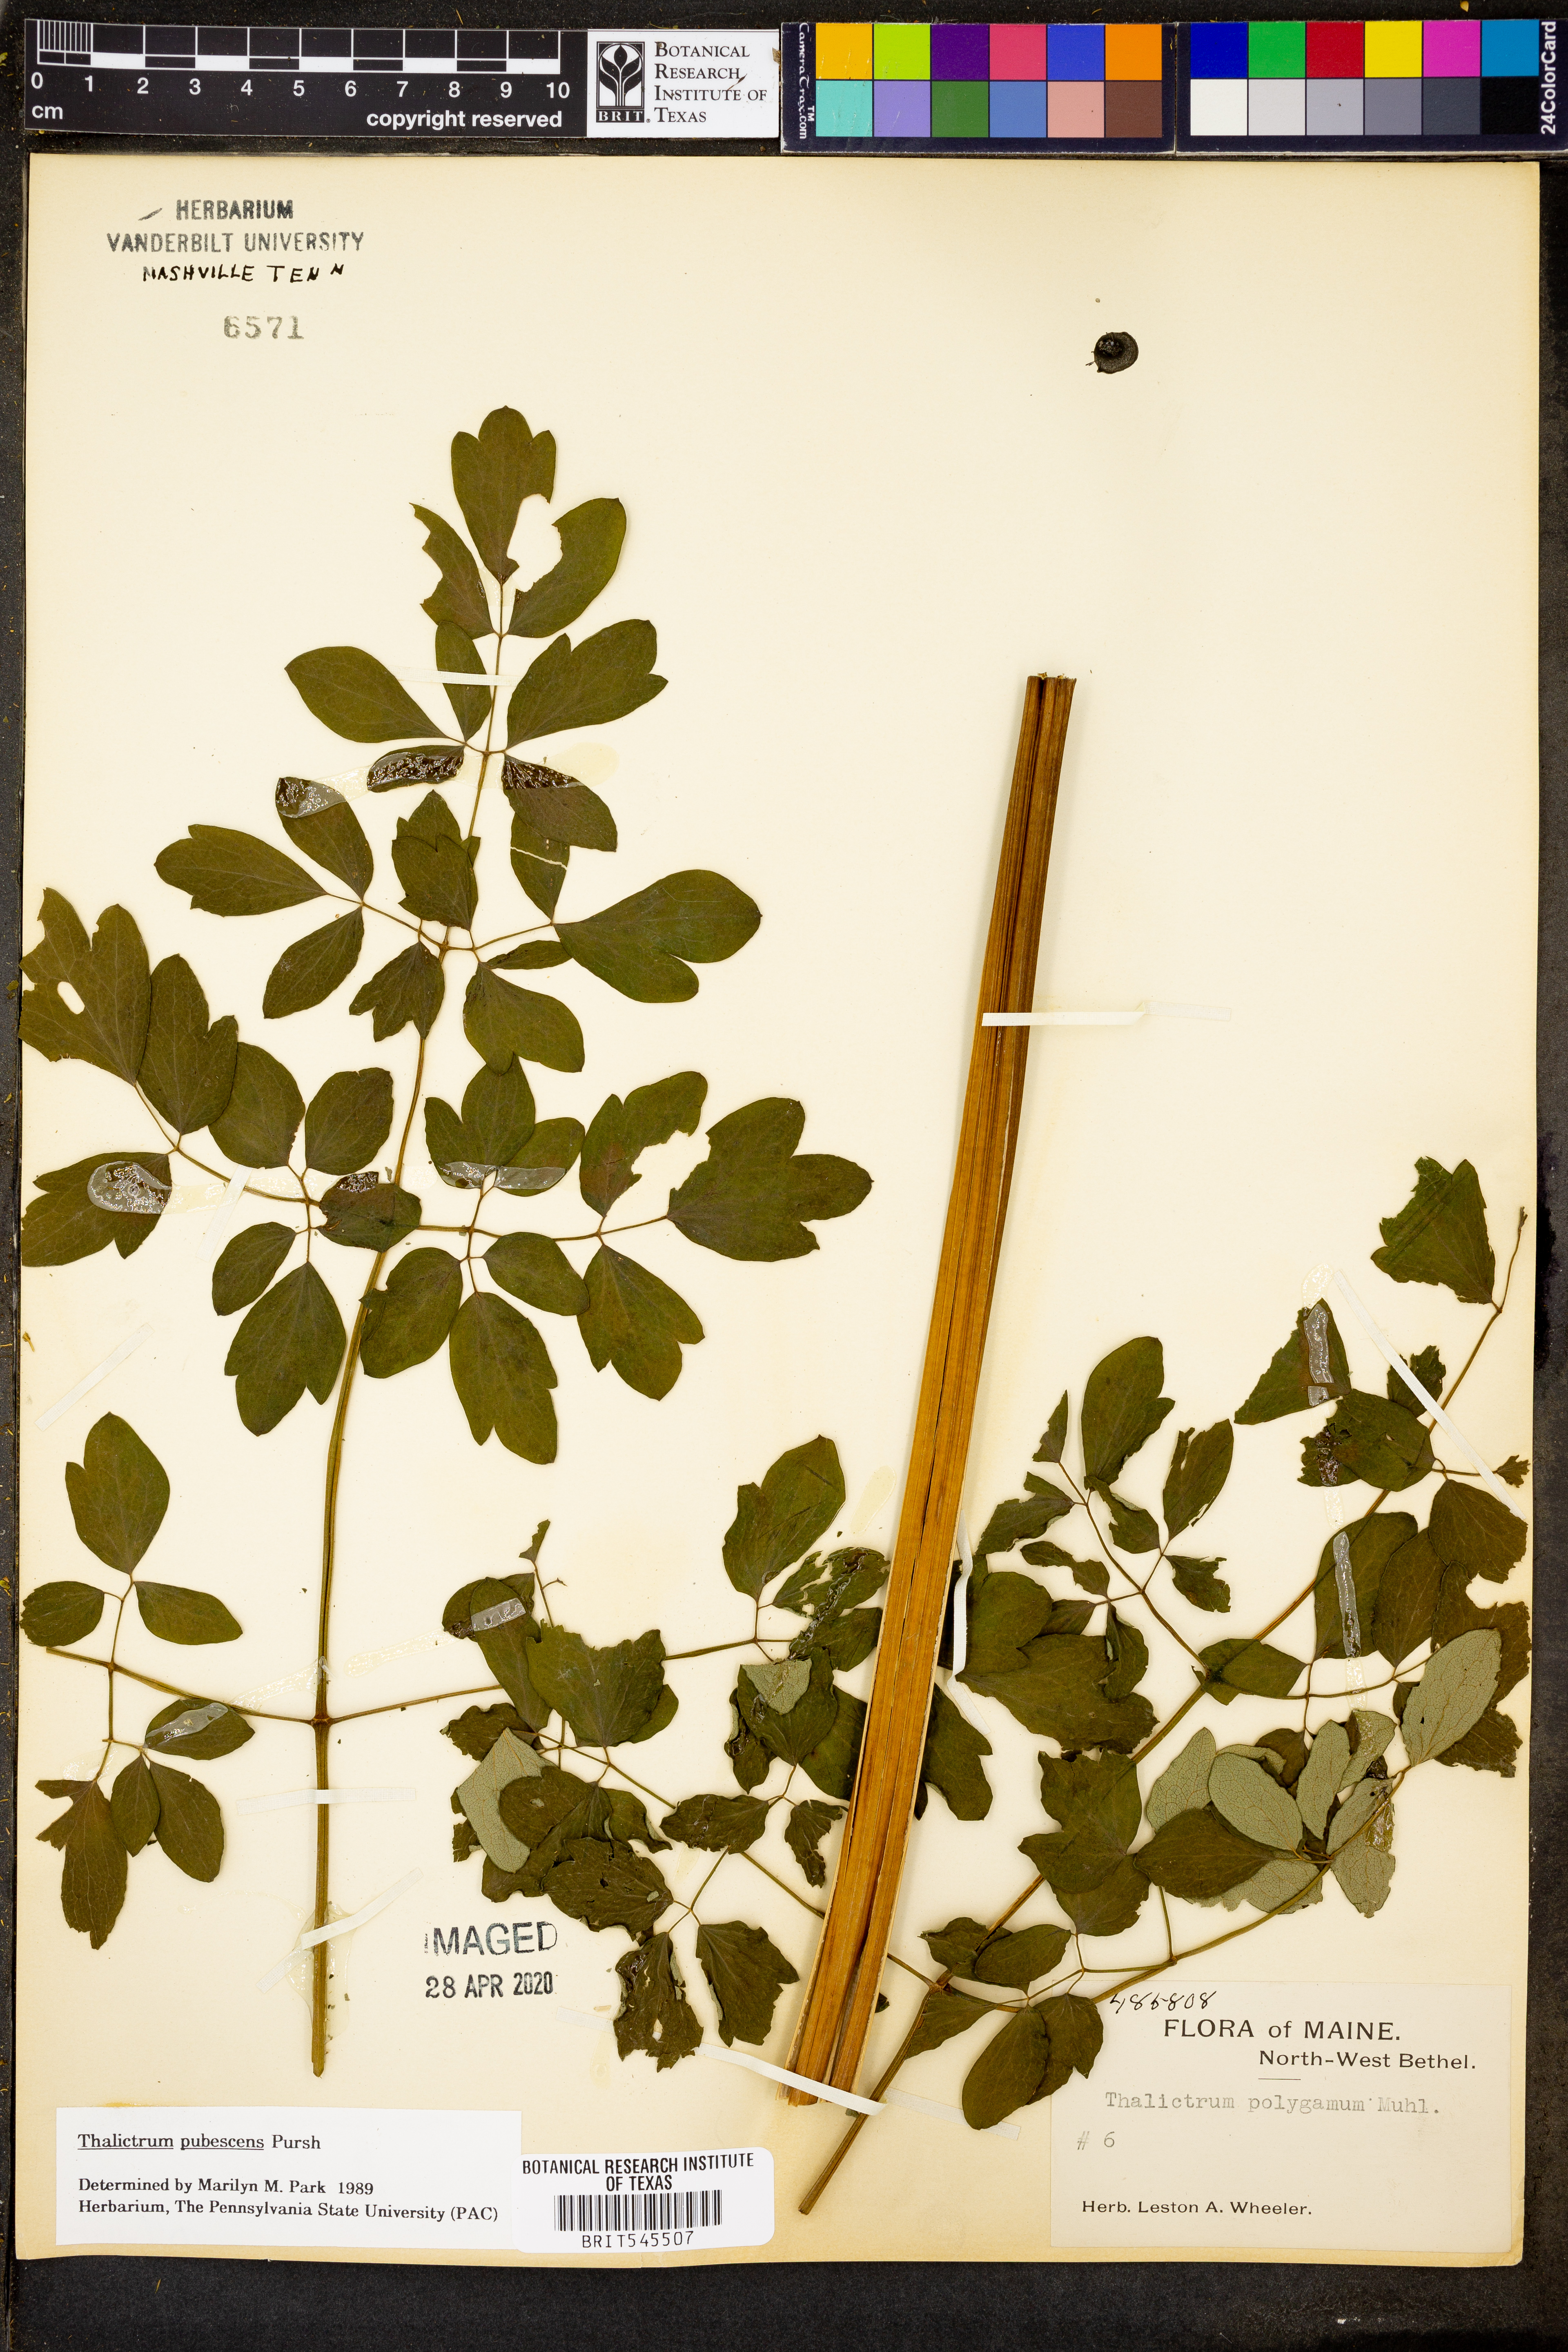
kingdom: Plantae
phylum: Tracheophyta
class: Magnoliopsida
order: Ranunculales
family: Ranunculaceae
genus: Thalictrum
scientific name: Thalictrum pubescens
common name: King-of-the-meadow
